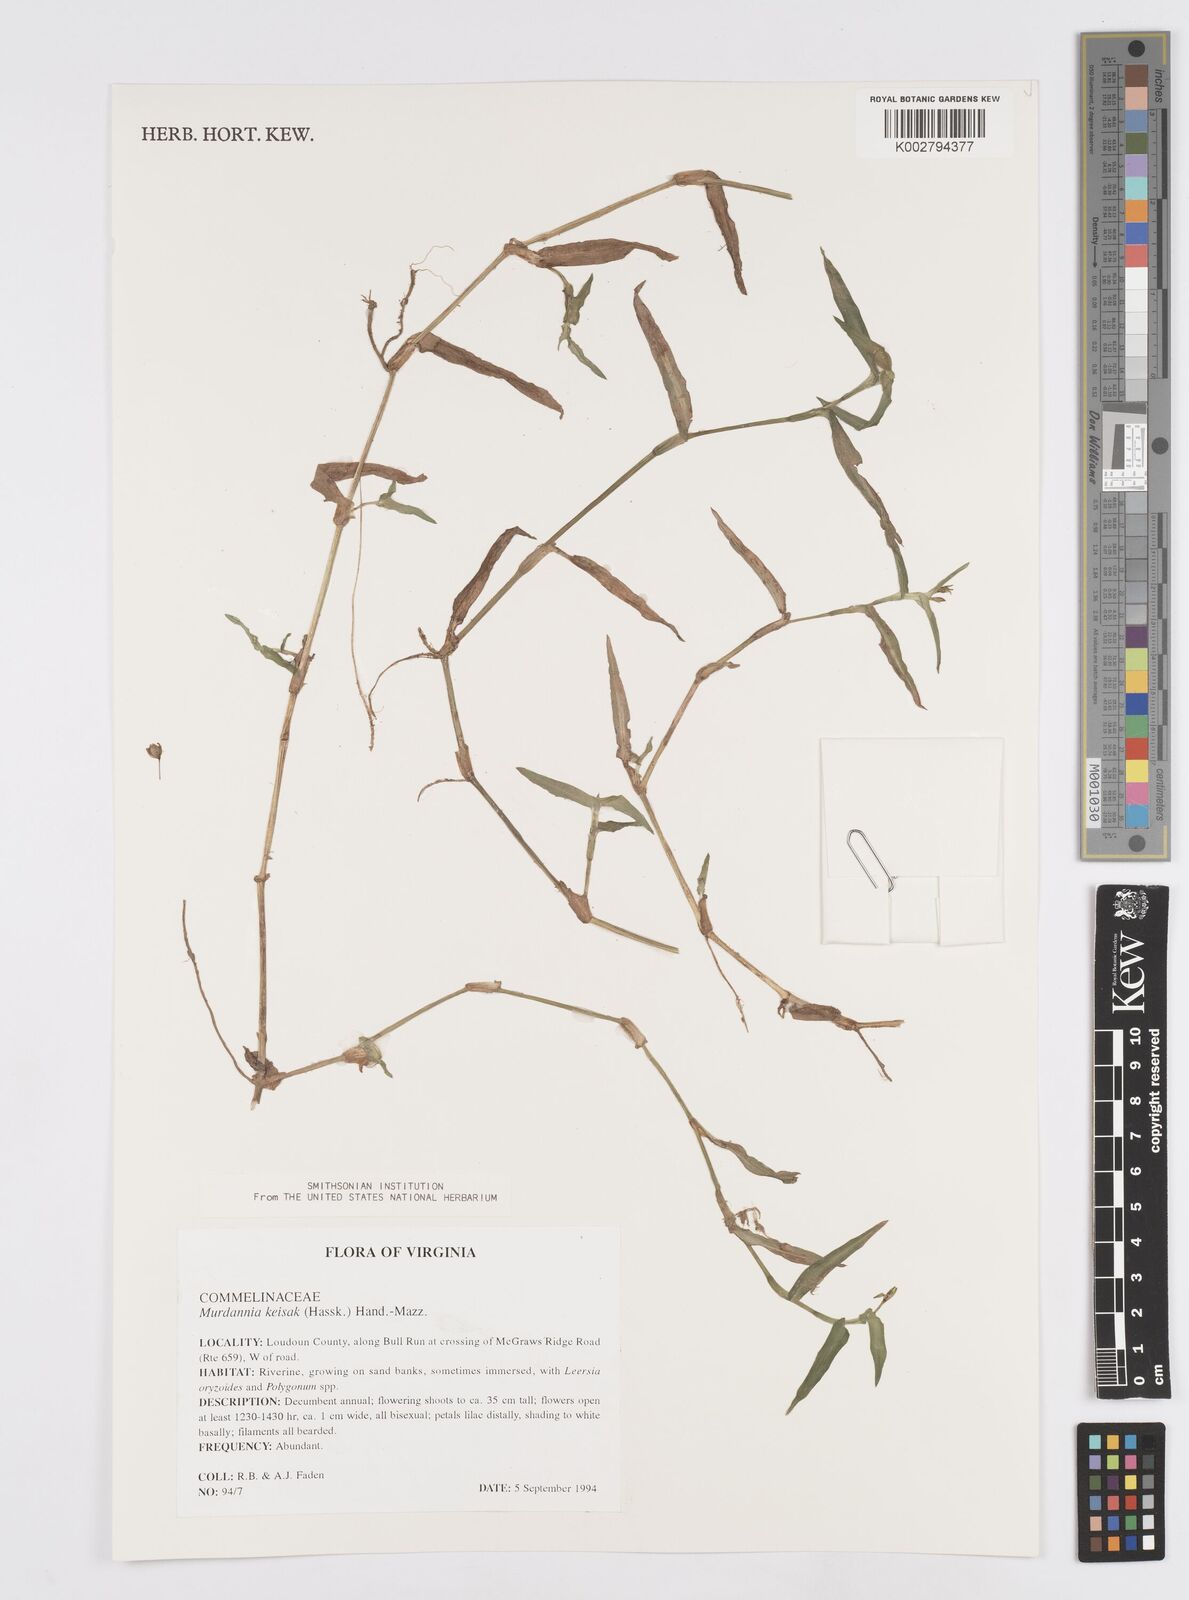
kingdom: Plantae
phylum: Tracheophyta
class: Liliopsida
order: Commelinales
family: Commelinaceae
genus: Murdannia
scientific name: Murdannia keisak
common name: Wartremoving herb
